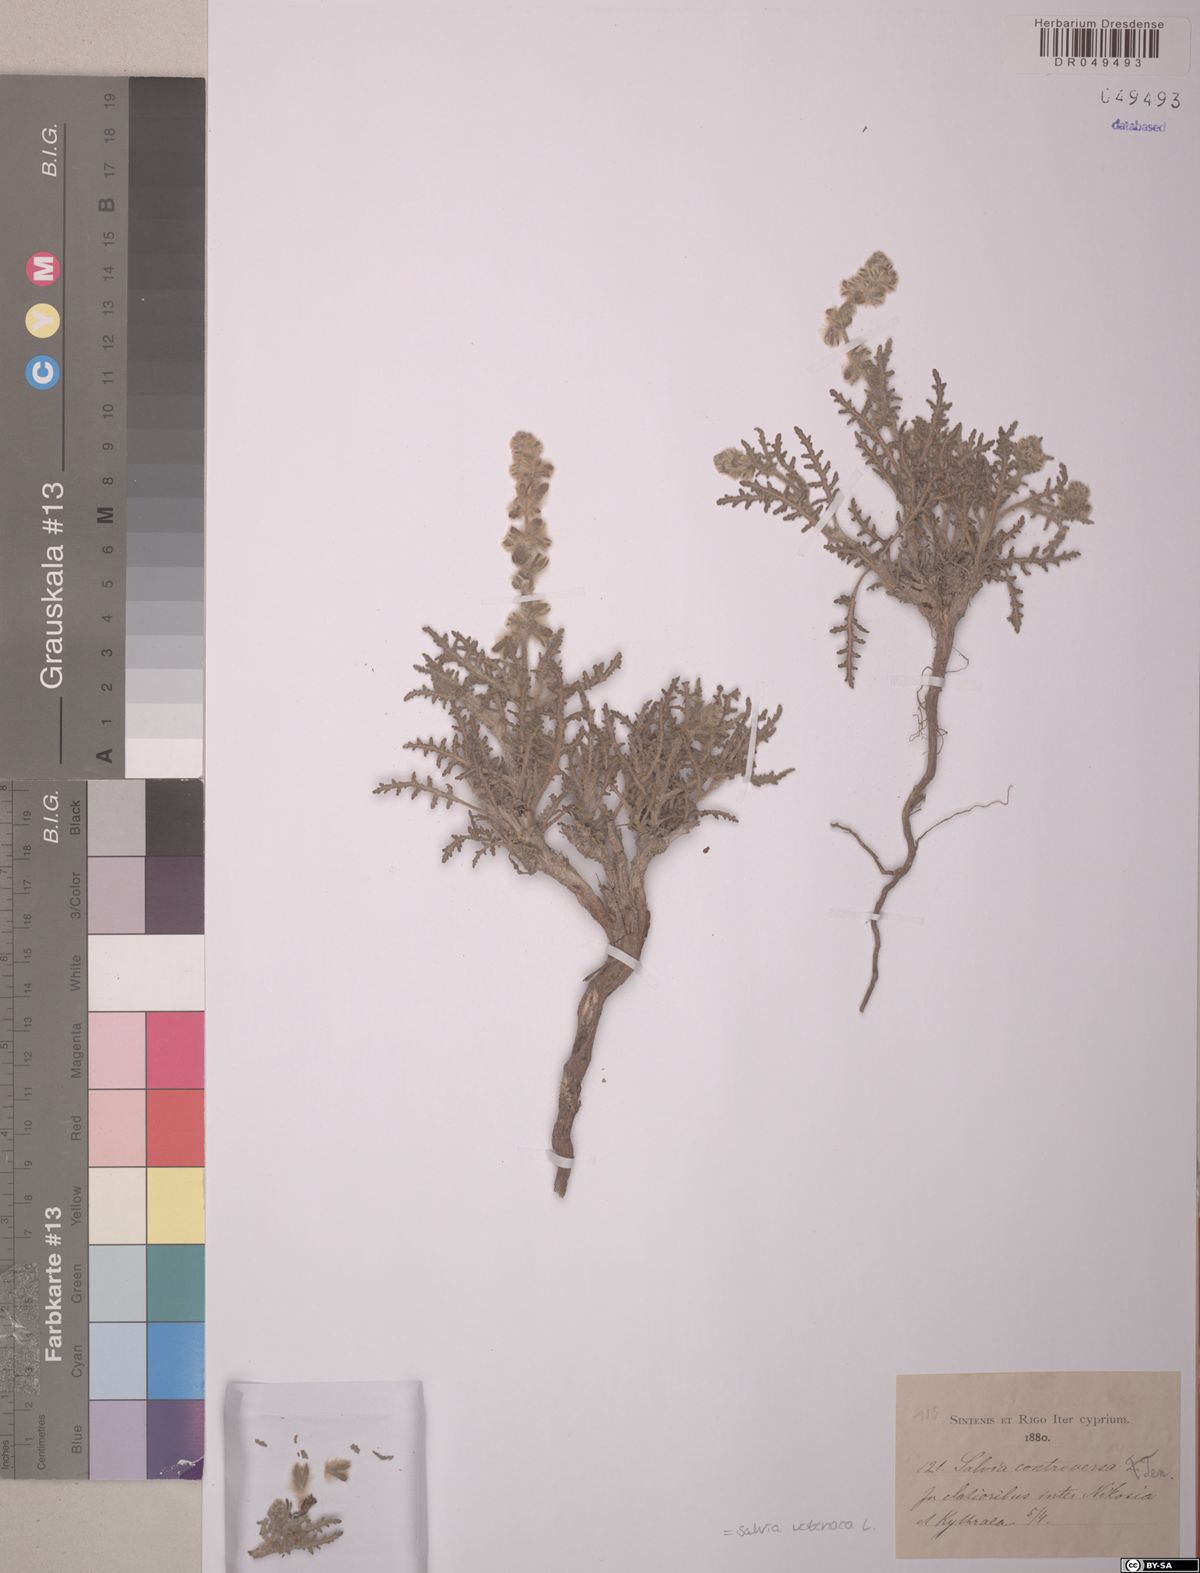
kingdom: Plantae
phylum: Tracheophyta
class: Magnoliopsida
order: Lamiales
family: Lamiaceae
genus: Salvia
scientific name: Salvia verbenaca
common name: Wild clary
